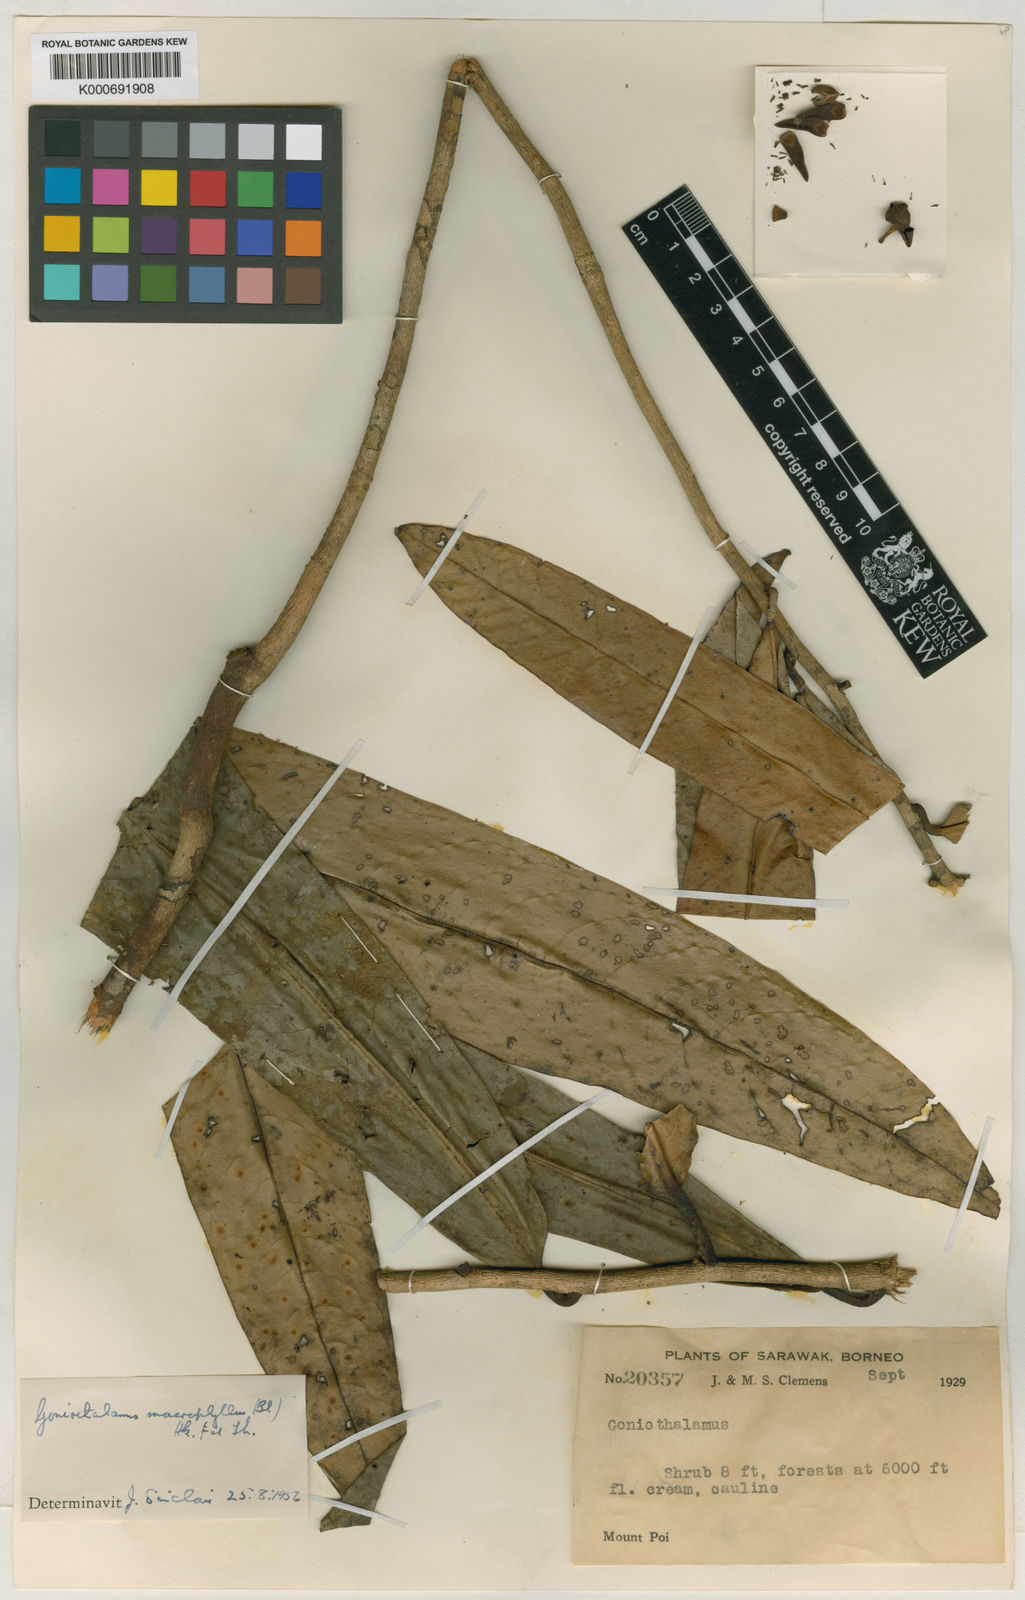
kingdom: Plantae
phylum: Tracheophyta
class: Magnoliopsida
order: Magnoliales
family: Annonaceae
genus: Goniothalamus
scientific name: Goniothalamus
